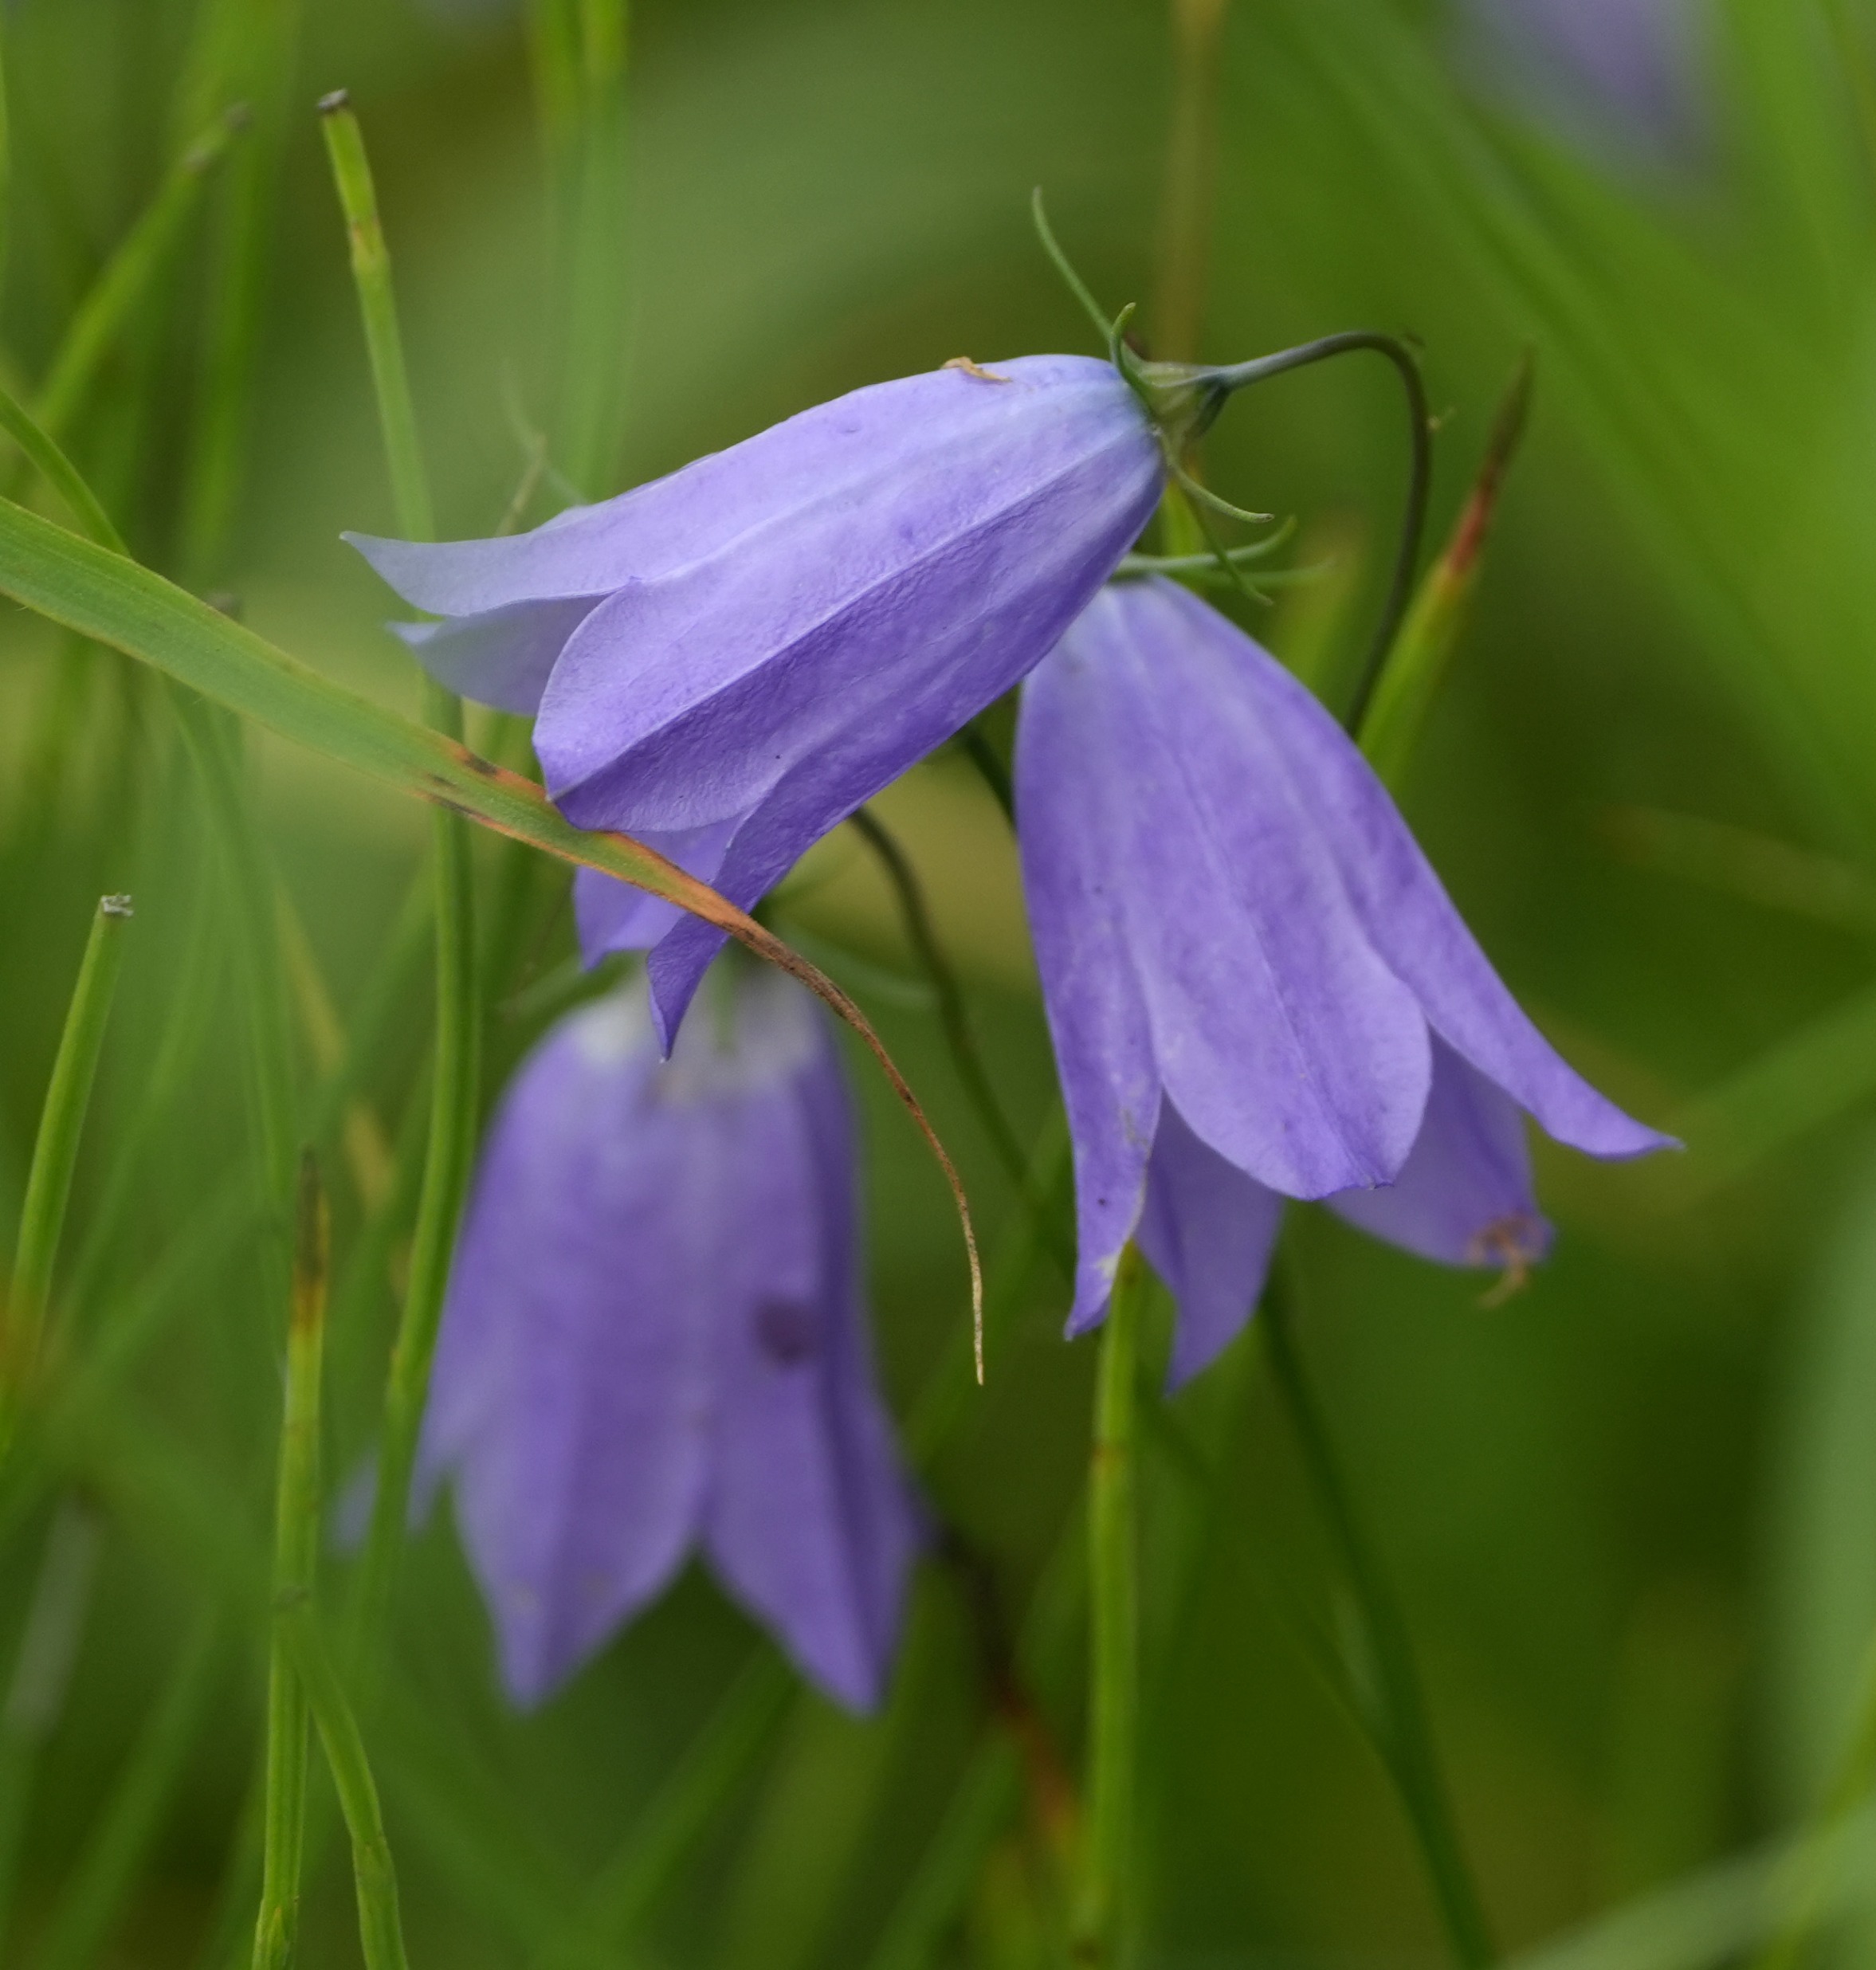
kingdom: Plantae
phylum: Tracheophyta
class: Magnoliopsida
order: Asterales
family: Campanulaceae
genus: Campanula
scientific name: Campanula rotundifolia
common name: Liden klokke
